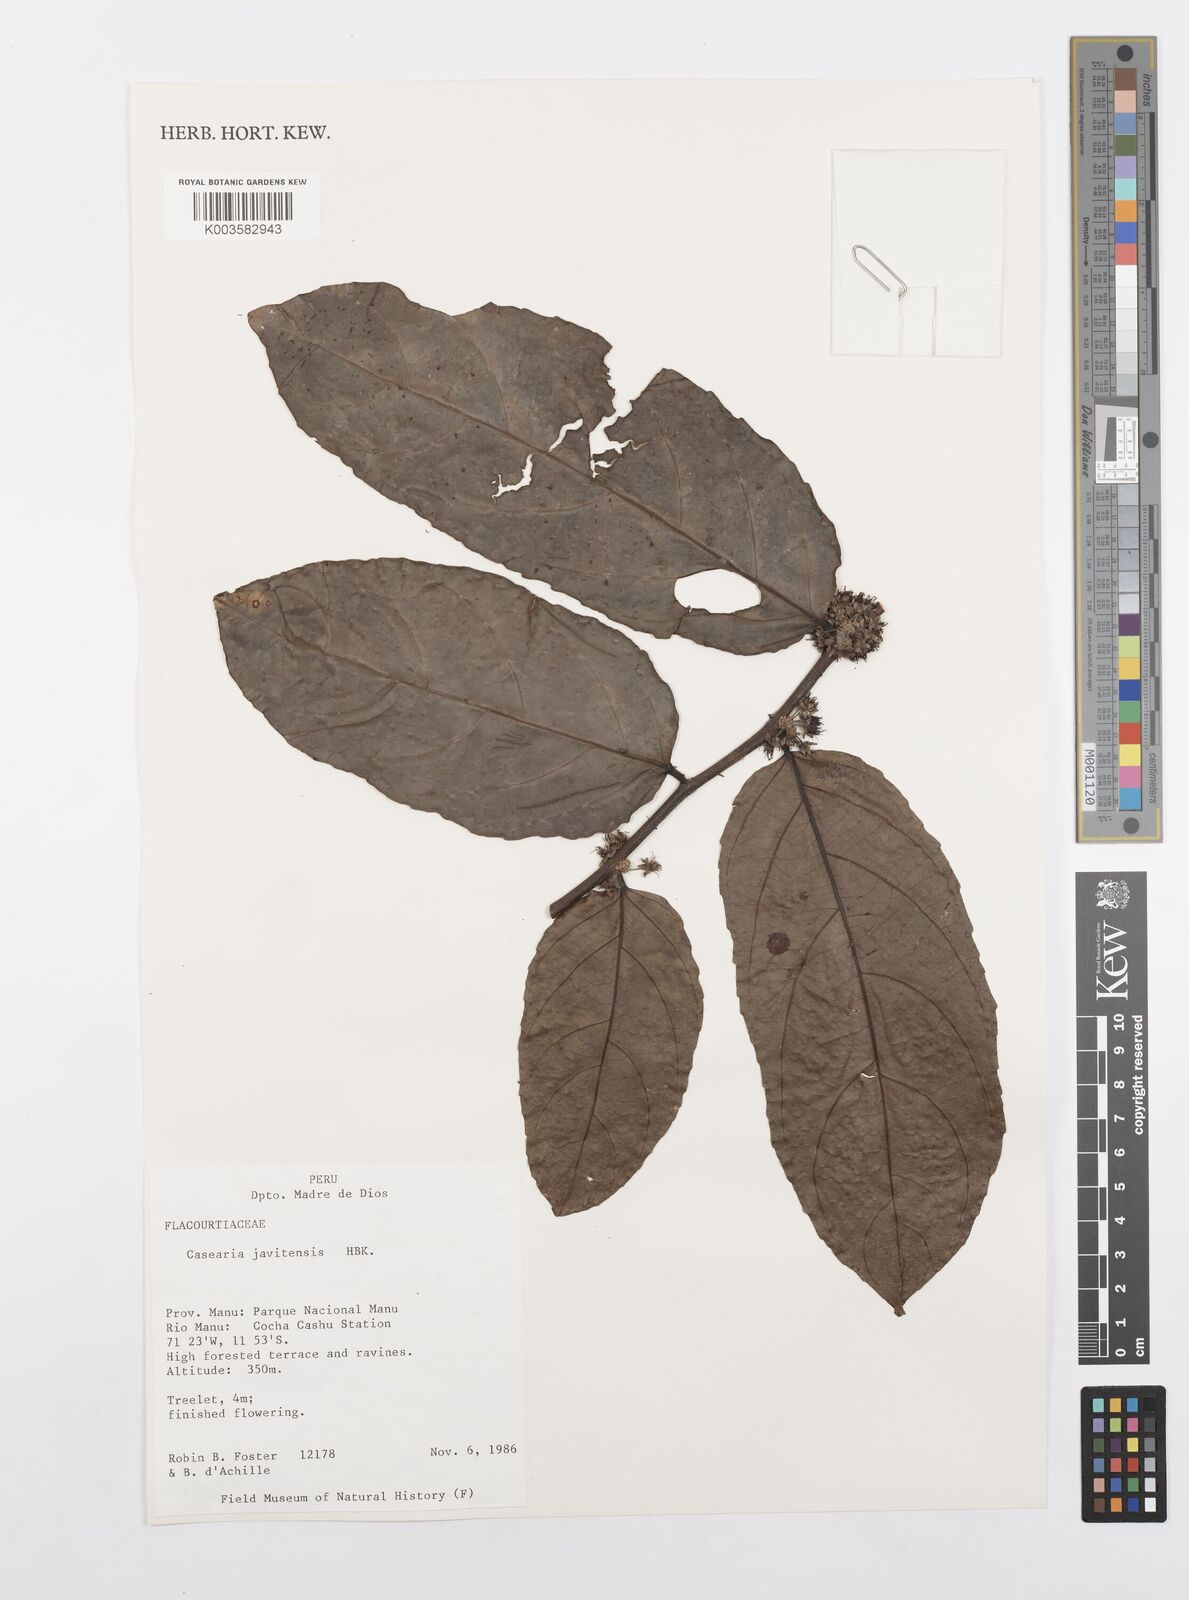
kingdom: Plantae
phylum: Tracheophyta
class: Magnoliopsida
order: Malpighiales
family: Salicaceae
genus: Piparea
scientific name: Piparea multiflora
